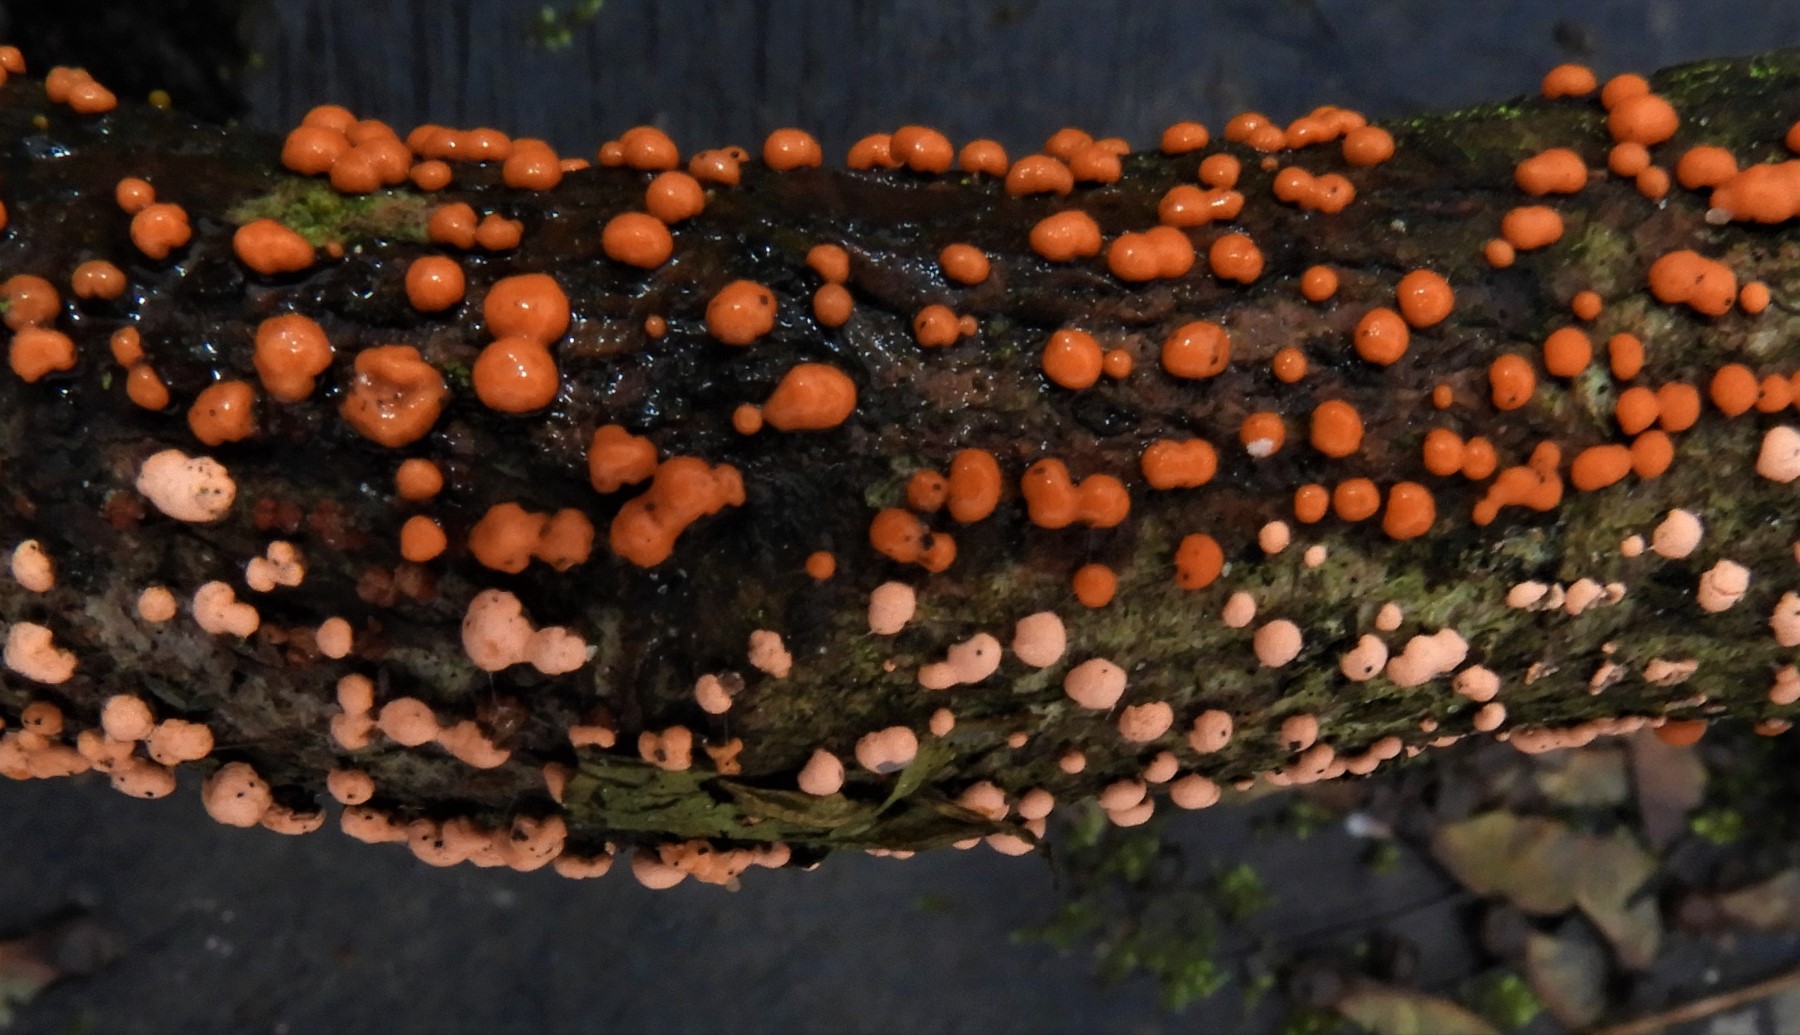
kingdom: Fungi
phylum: Ascomycota
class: Sordariomycetes
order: Hypocreales
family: Nectriaceae
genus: Nectria
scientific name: Nectria cinnabarina
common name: almindelig cinnobersvamp
